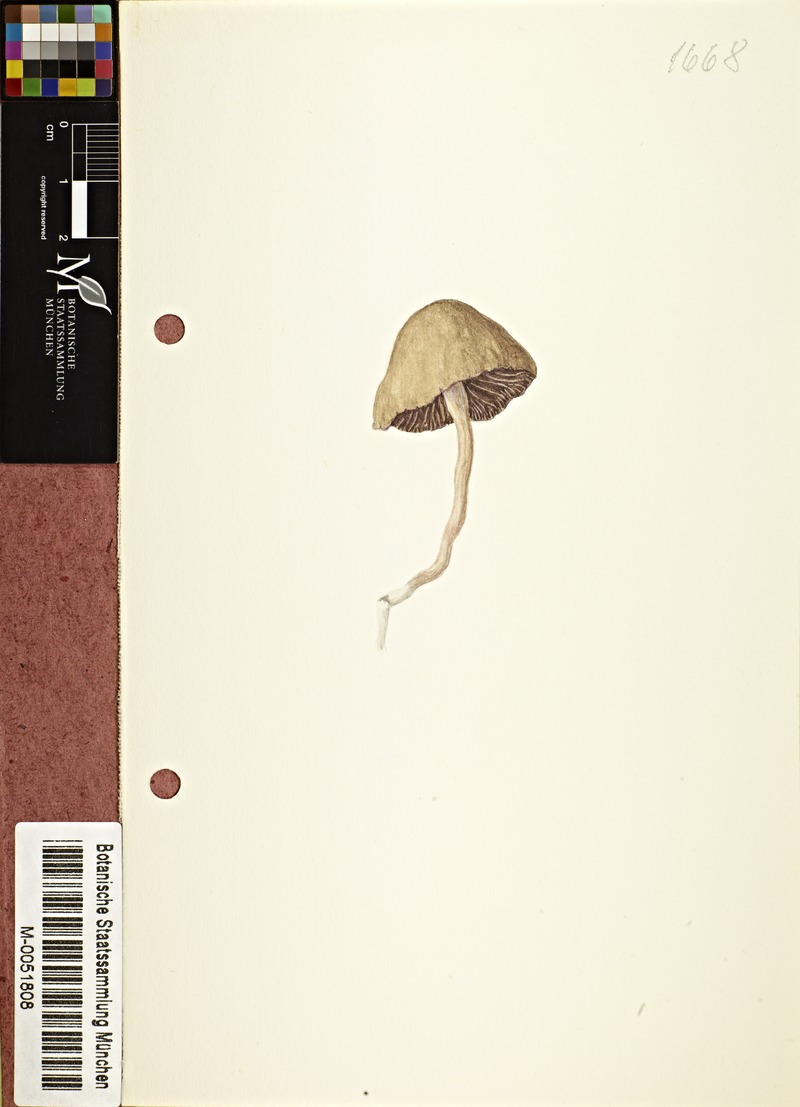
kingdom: Fungi
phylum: Basidiomycota
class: Agaricomycetes
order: Agaricales
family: Bolbitiaceae
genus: Panaeolina
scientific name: Panaeolina foenisecii
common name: Brown hay cap
